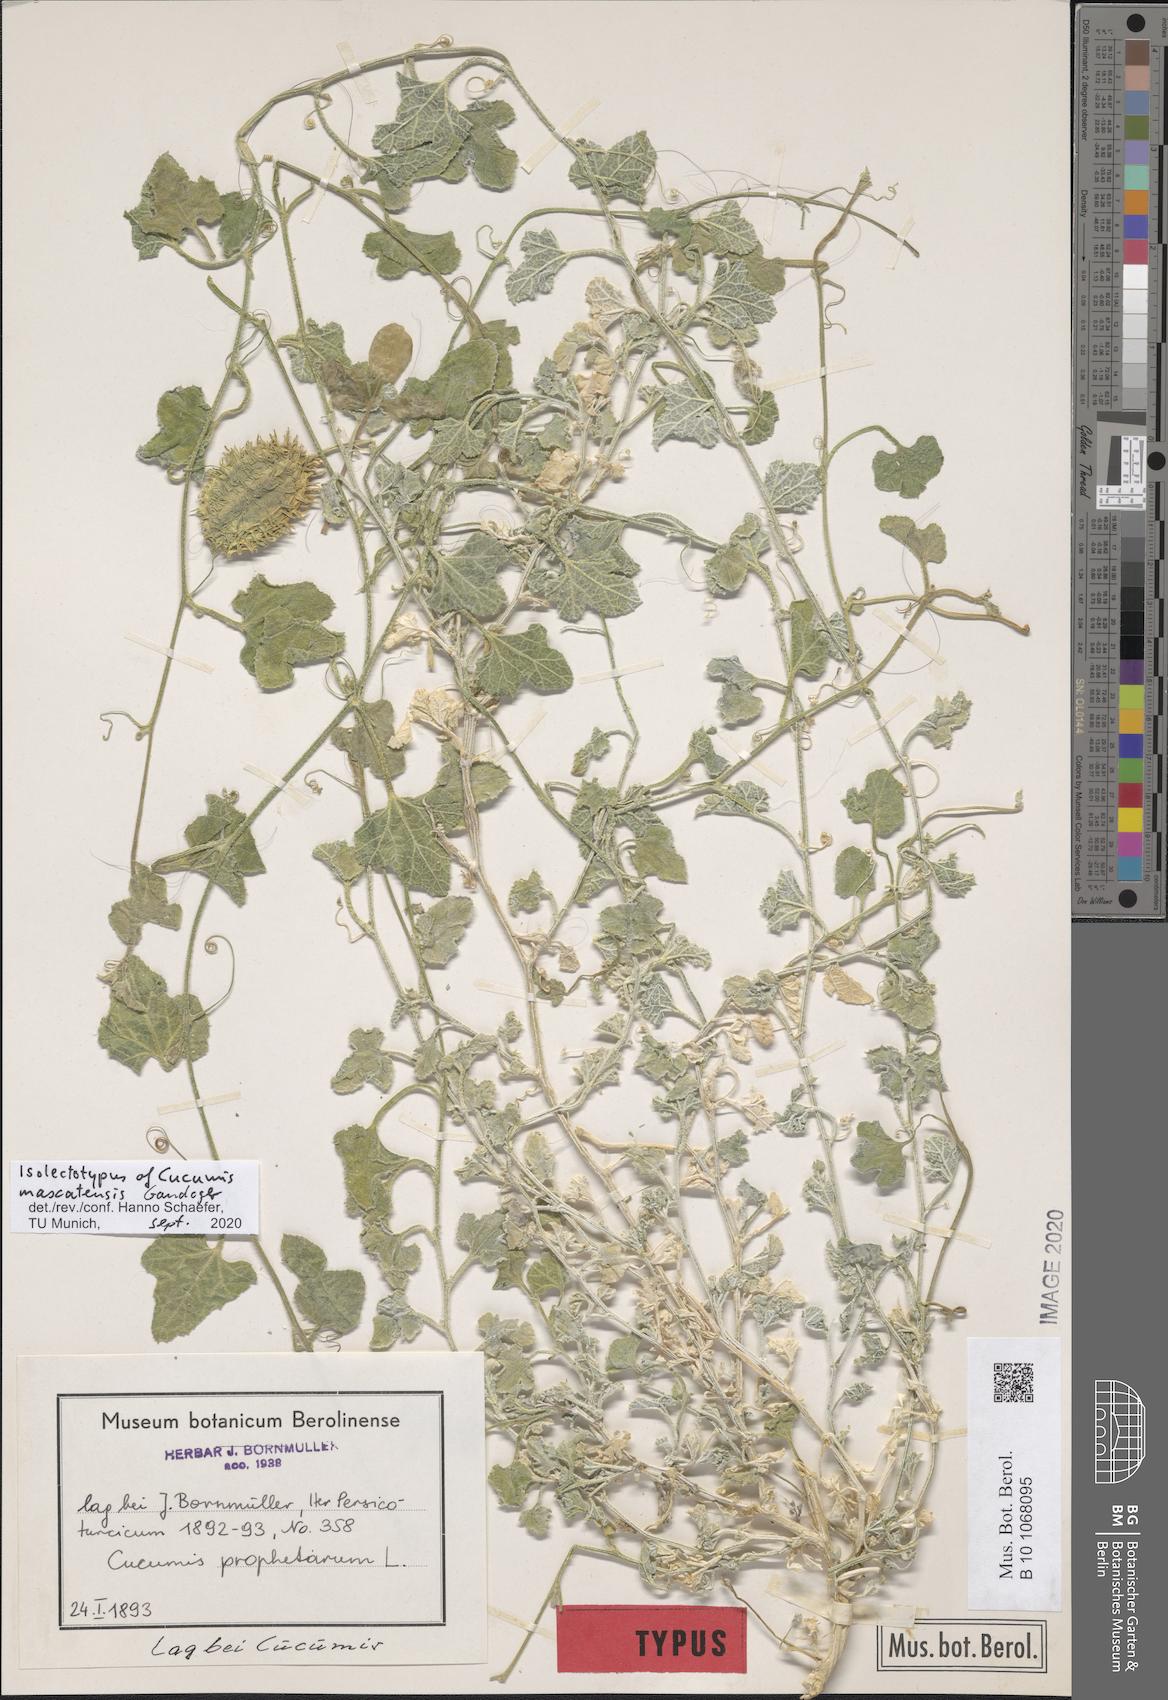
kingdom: Plantae
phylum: Tracheophyta
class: Magnoliopsida
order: Cucurbitales
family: Cucurbitaceae
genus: Cucumis
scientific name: Cucumis prophetarum
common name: Wild cucumber
